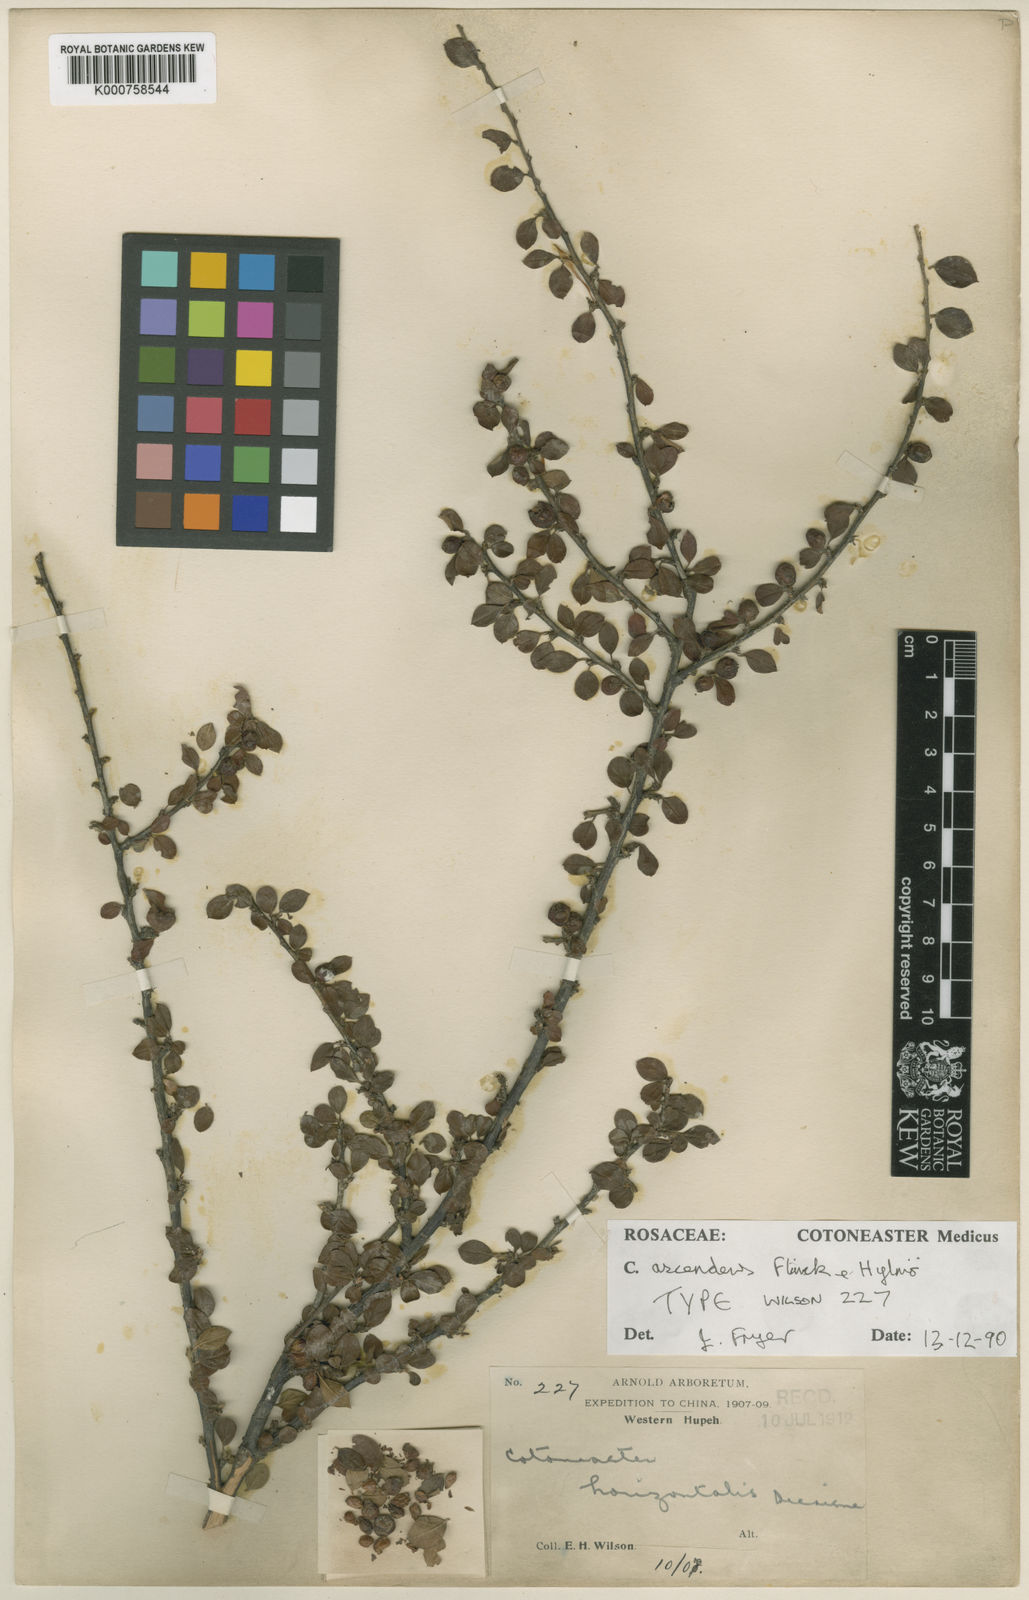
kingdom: Plantae
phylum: Tracheophyta
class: Magnoliopsida
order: Rosales
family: Rosaceae
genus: Cotoneaster
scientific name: Cotoneaster horizontalis
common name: Wall cotoneaster
